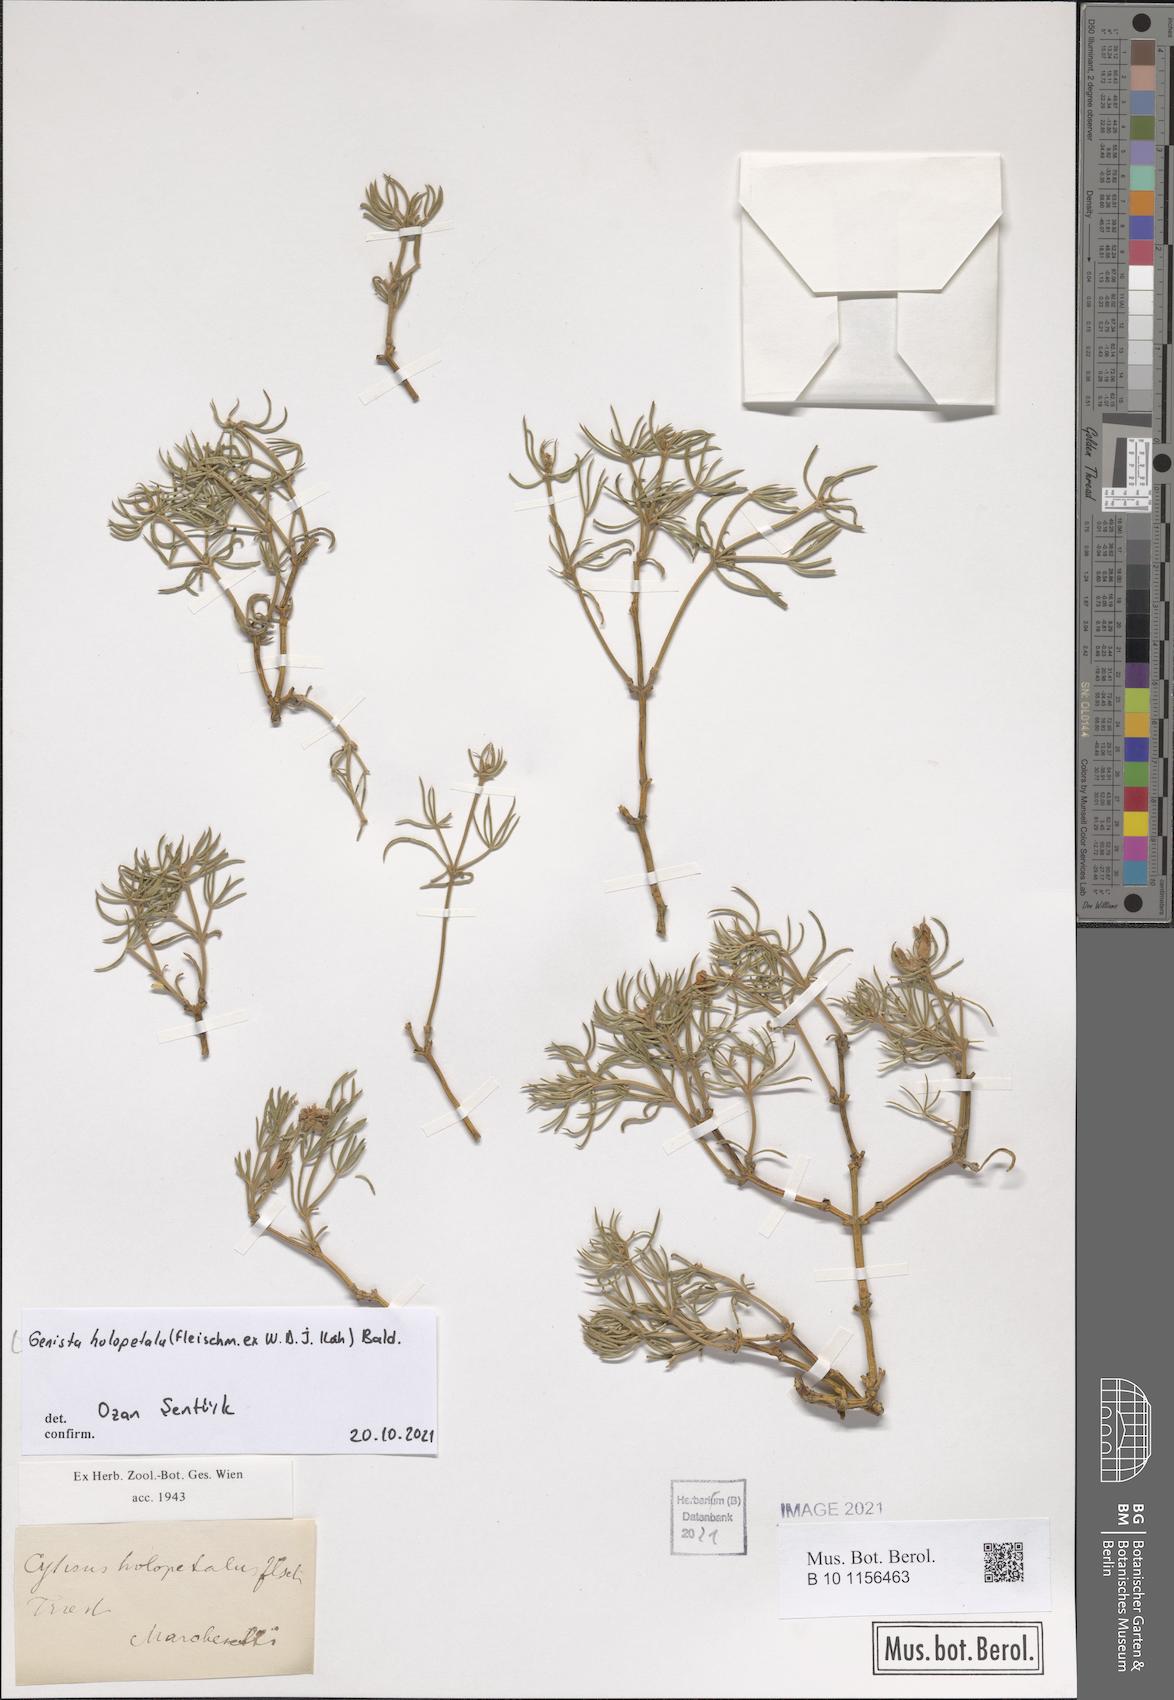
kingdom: Plantae
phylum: Tracheophyta
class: Magnoliopsida
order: Fabales
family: Fabaceae
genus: Genista
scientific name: Genista holopetala
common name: Entire-petalled gorse
